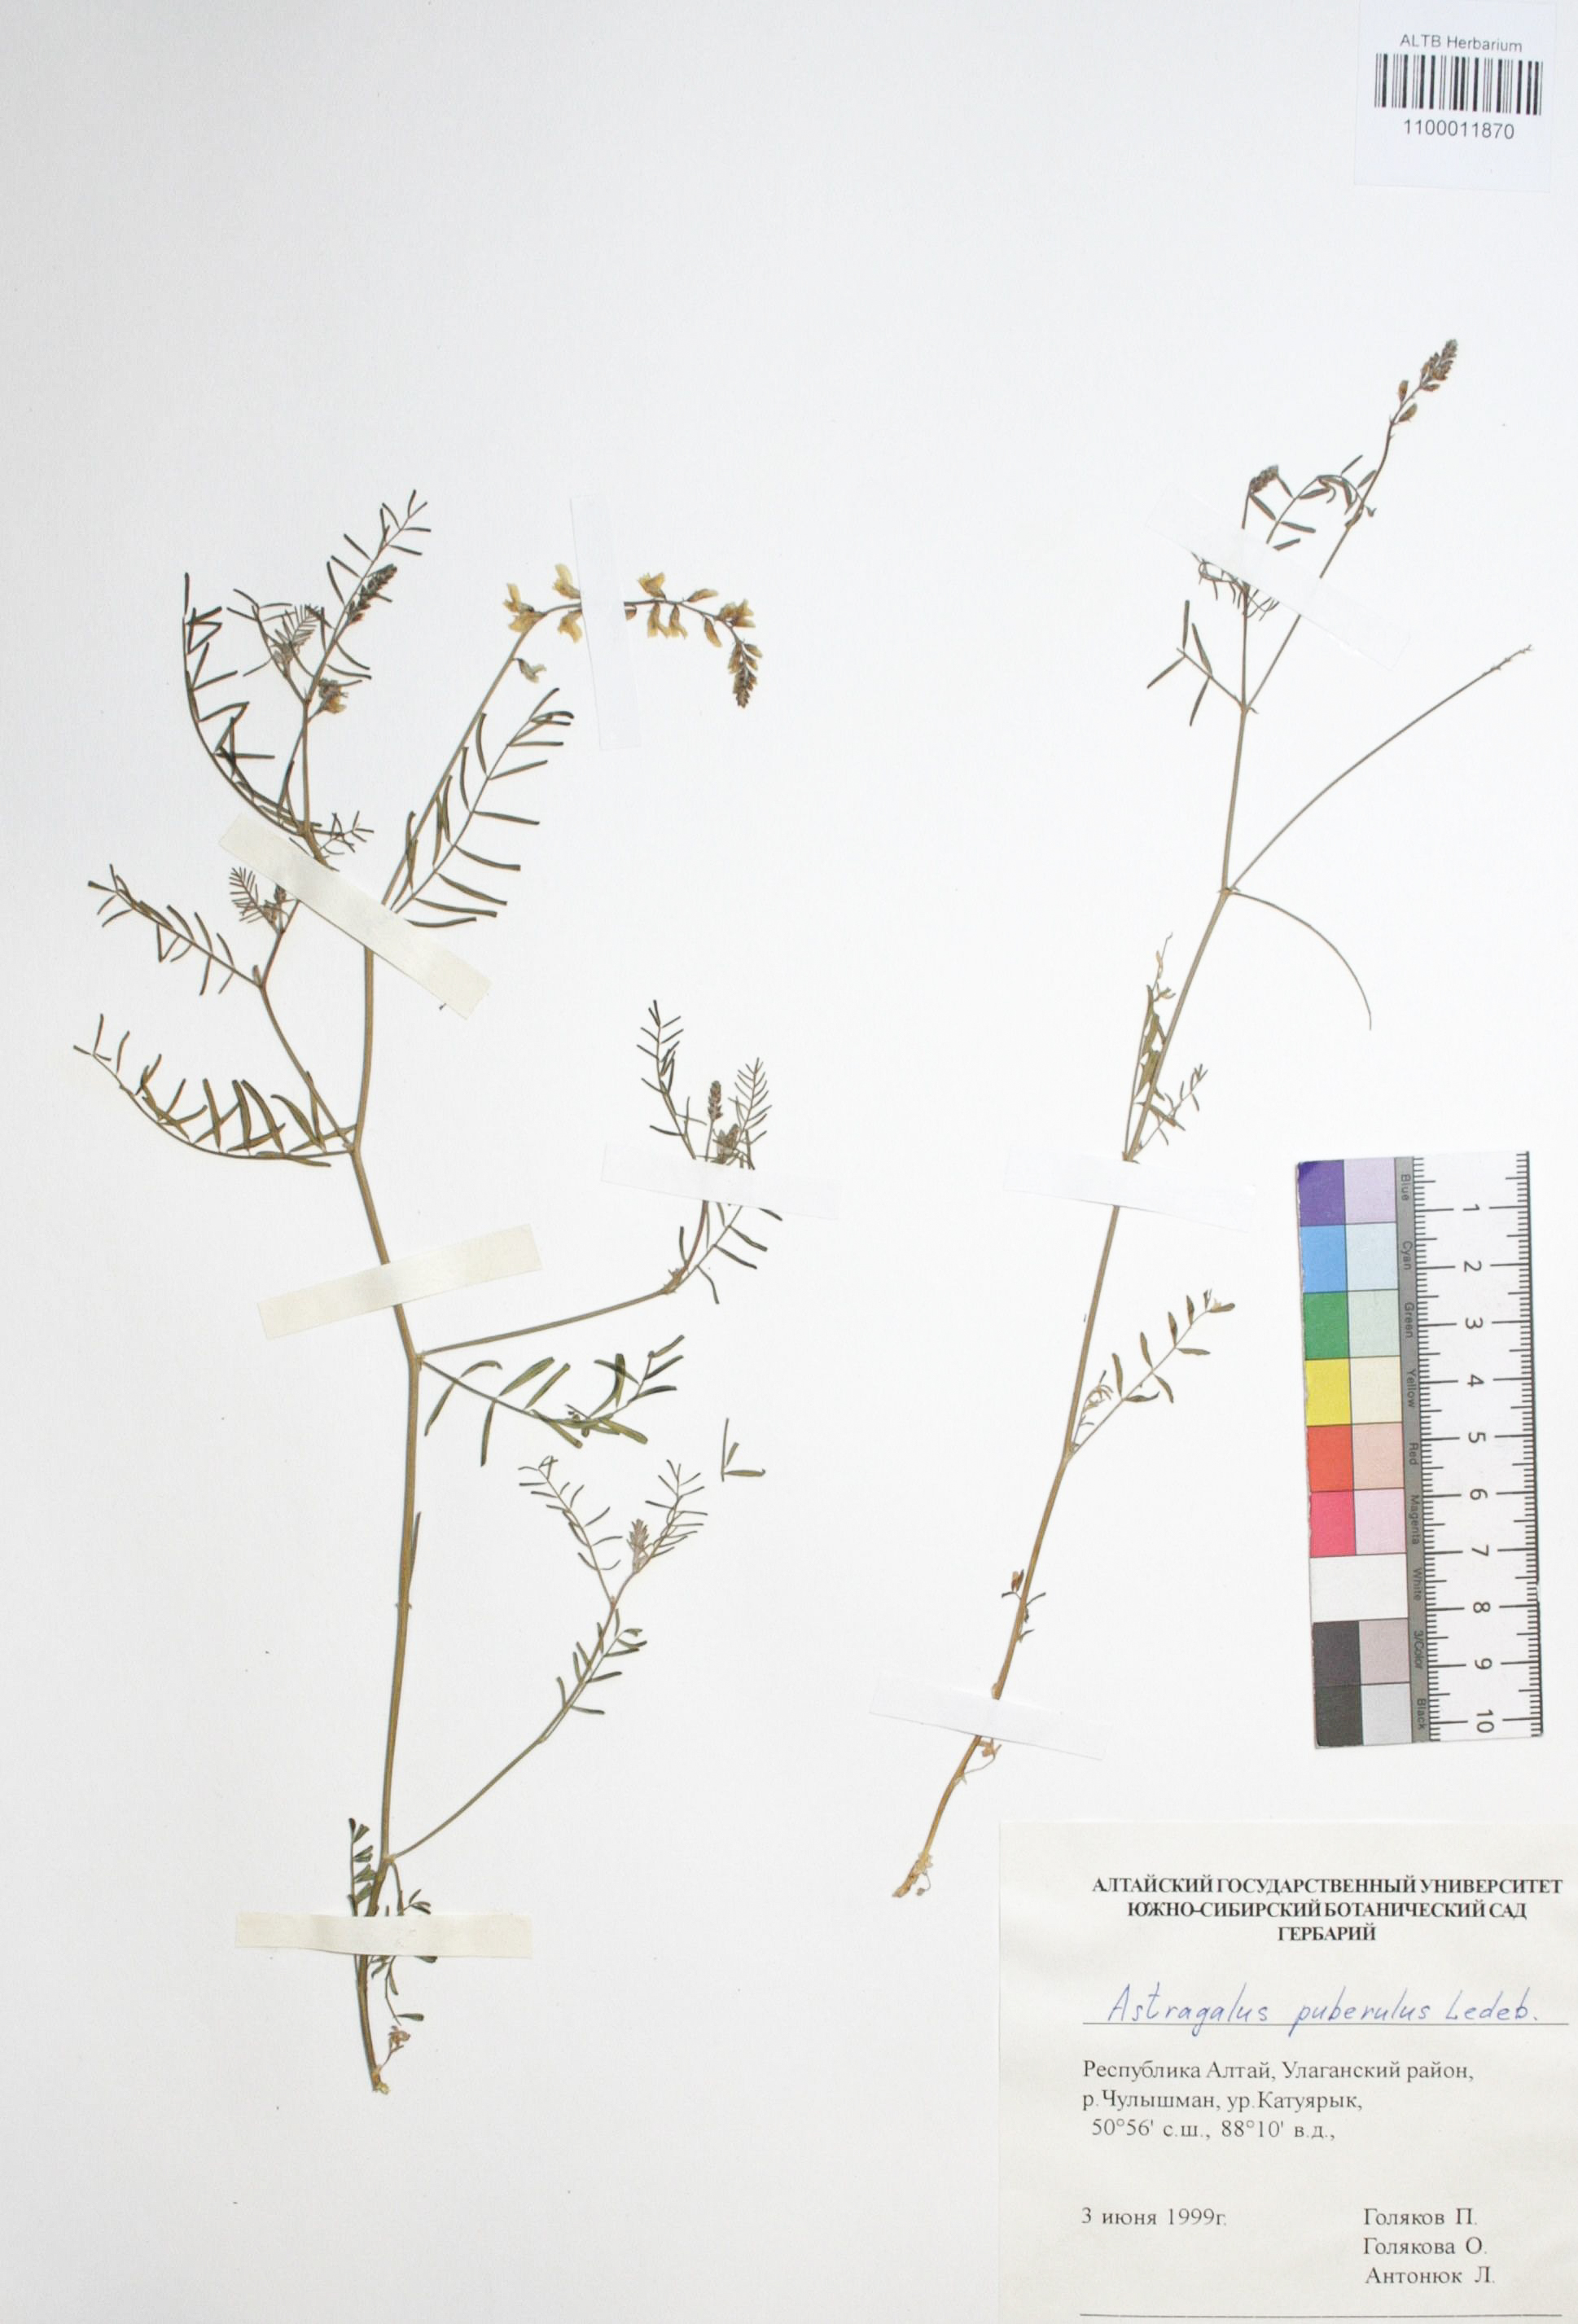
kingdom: Plantae
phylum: Tracheophyta
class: Magnoliopsida
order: Fabales
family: Fabaceae
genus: Astragalus
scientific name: Astragalus puberulus
